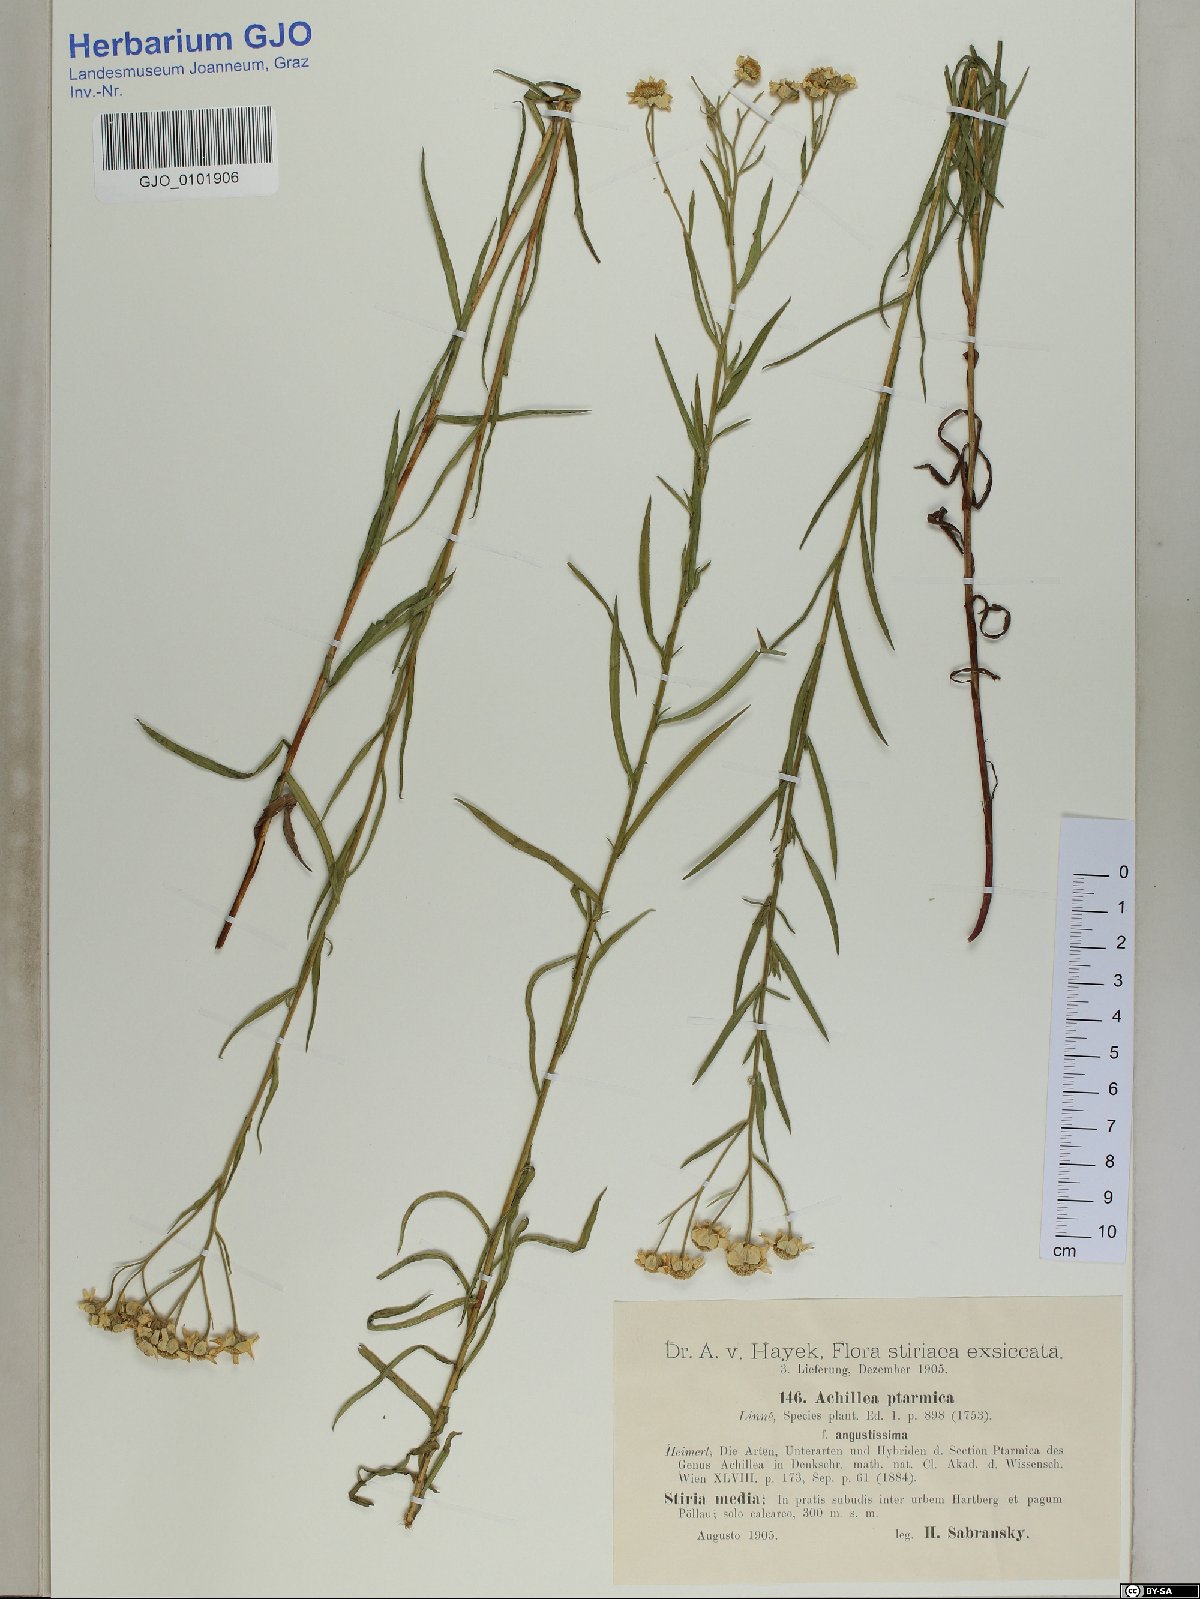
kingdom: Plantae
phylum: Tracheophyta
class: Magnoliopsida
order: Asterales
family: Asteraceae
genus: Achillea
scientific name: Achillea ptarmica
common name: Sneezeweed
